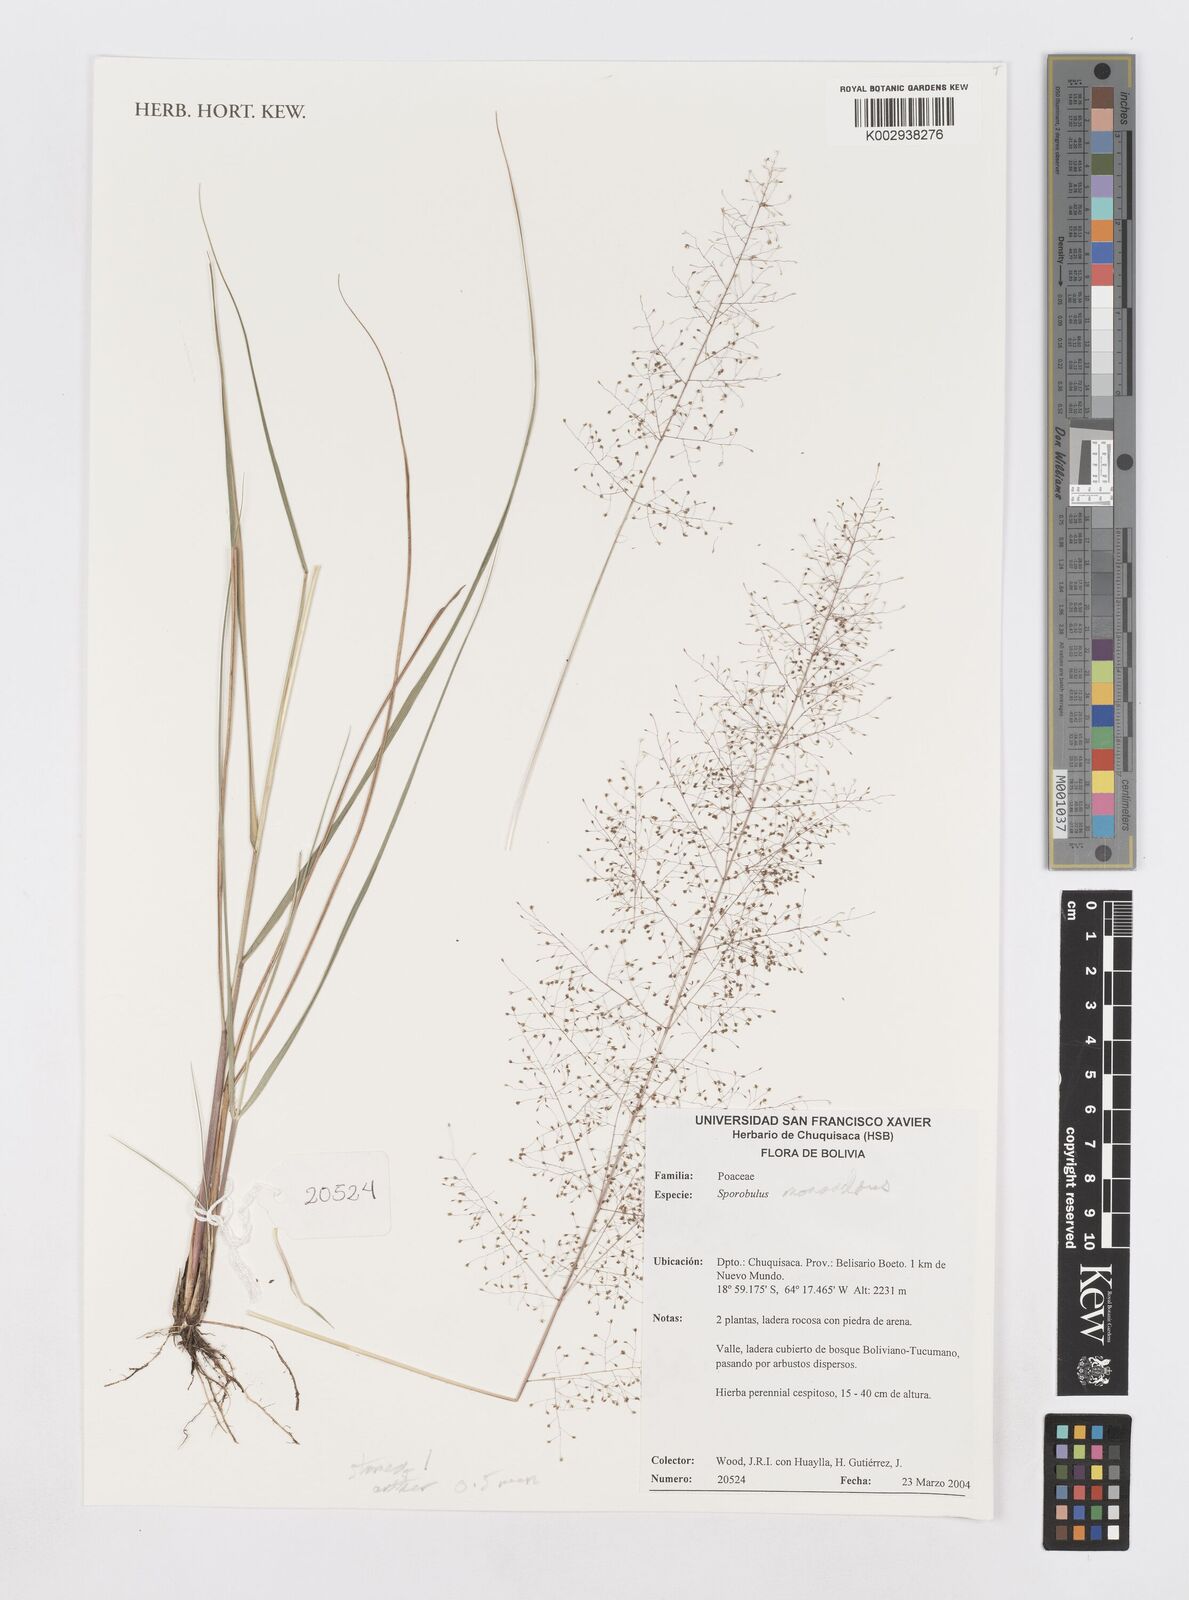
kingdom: Plantae
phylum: Tracheophyta
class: Liliopsida
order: Poales
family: Poaceae
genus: Sporobolus
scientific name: Sporobolus monandrus
